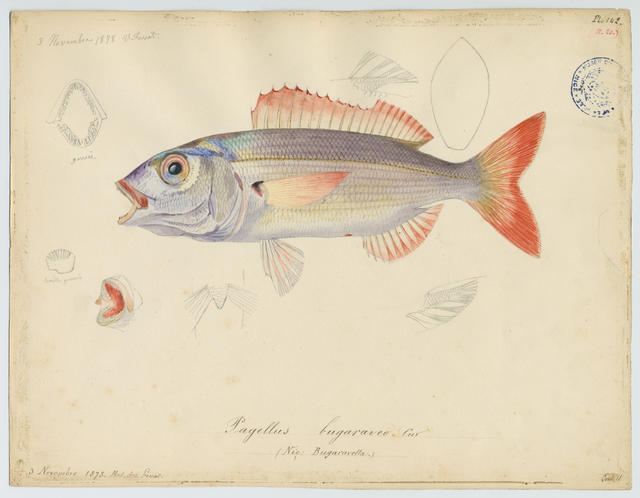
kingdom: Animalia
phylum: Chordata
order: Perciformes
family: Sparidae
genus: Pagellus
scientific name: Pagellus acarne
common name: Axillary sea-bream
